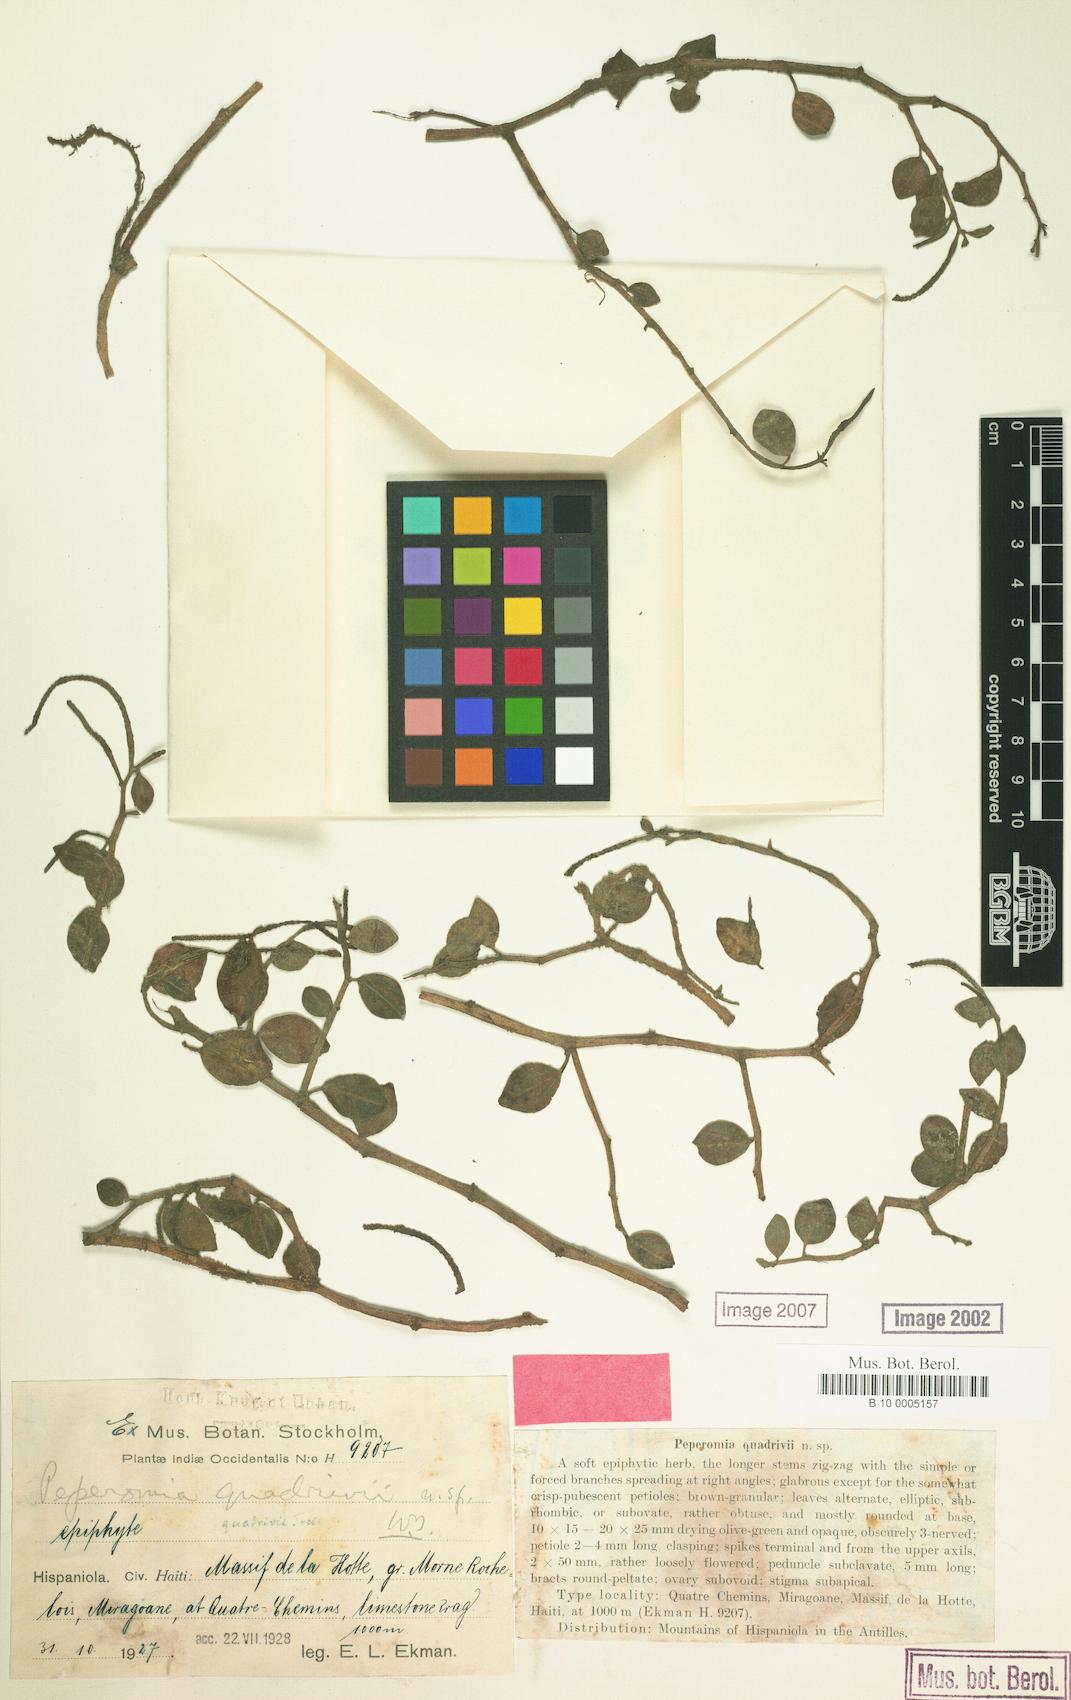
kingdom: Plantae
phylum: Tracheophyta
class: Magnoliopsida
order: Piperales
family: Piperaceae
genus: Peperomia
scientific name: Peperomia glabella
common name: Cypress peperomia
